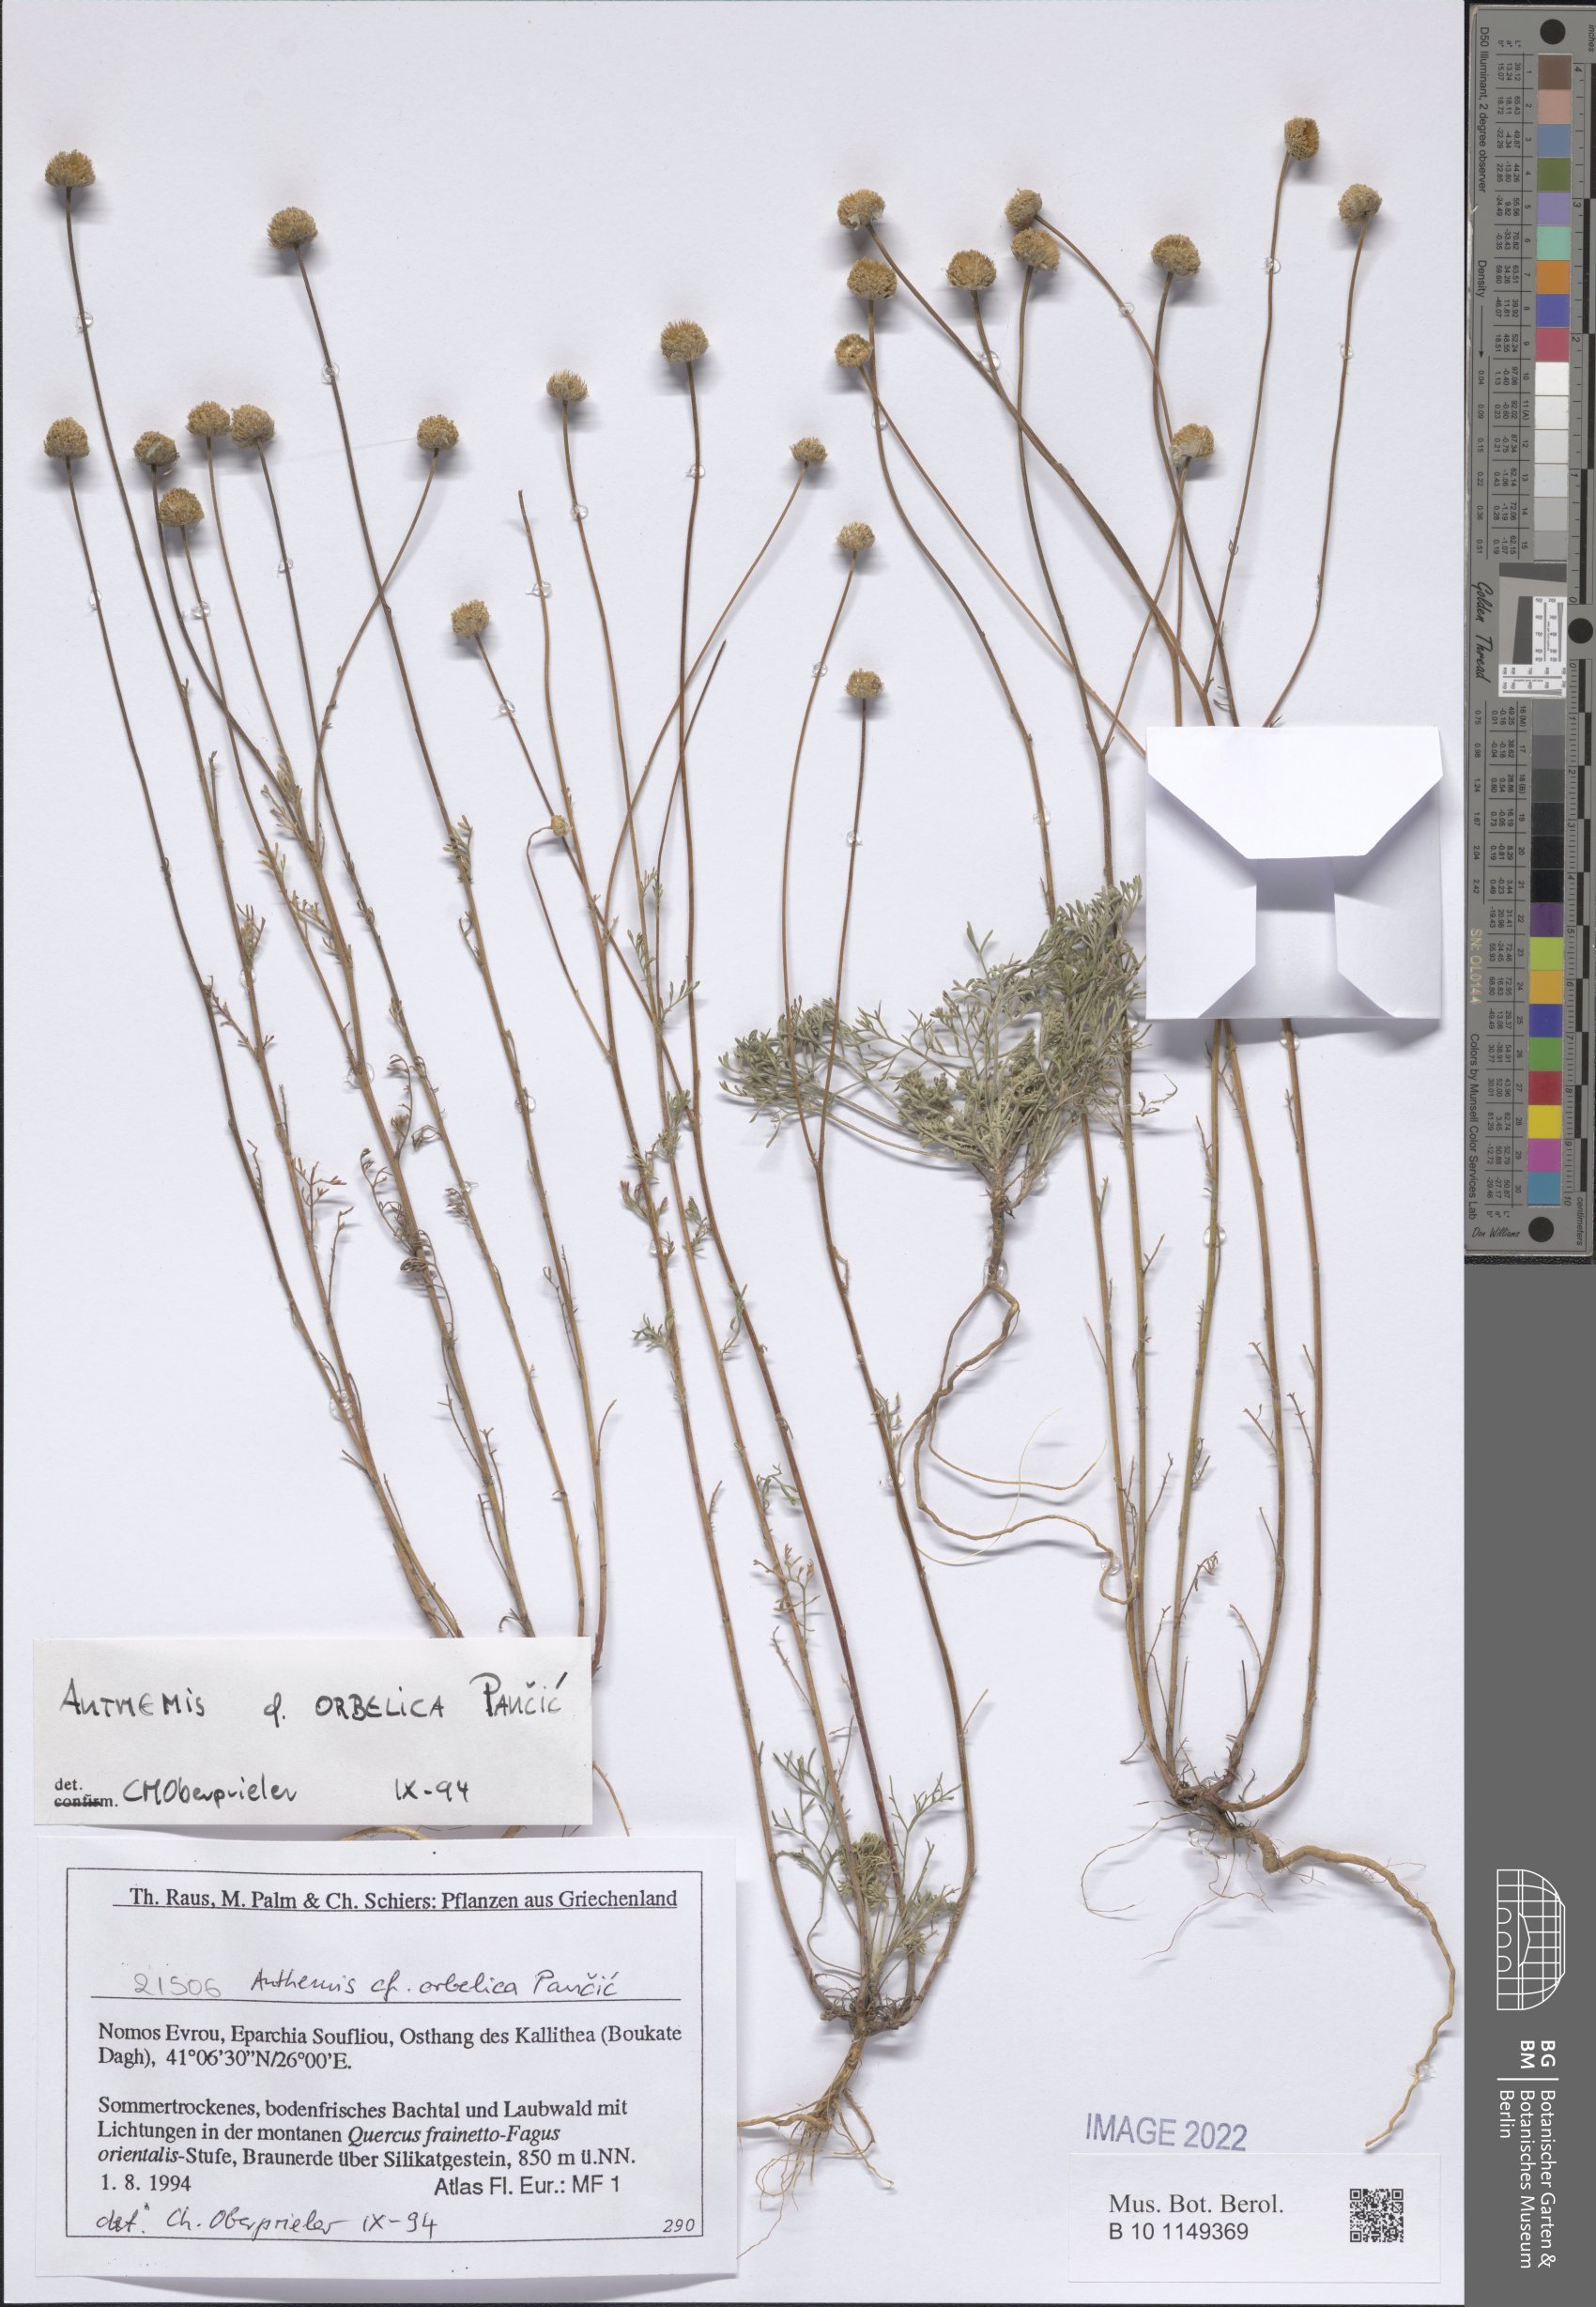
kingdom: Plantae
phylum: Tracheophyta
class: Magnoliopsida
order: Asterales
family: Asteraceae
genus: Anthemis
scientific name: Anthemis orbelica
